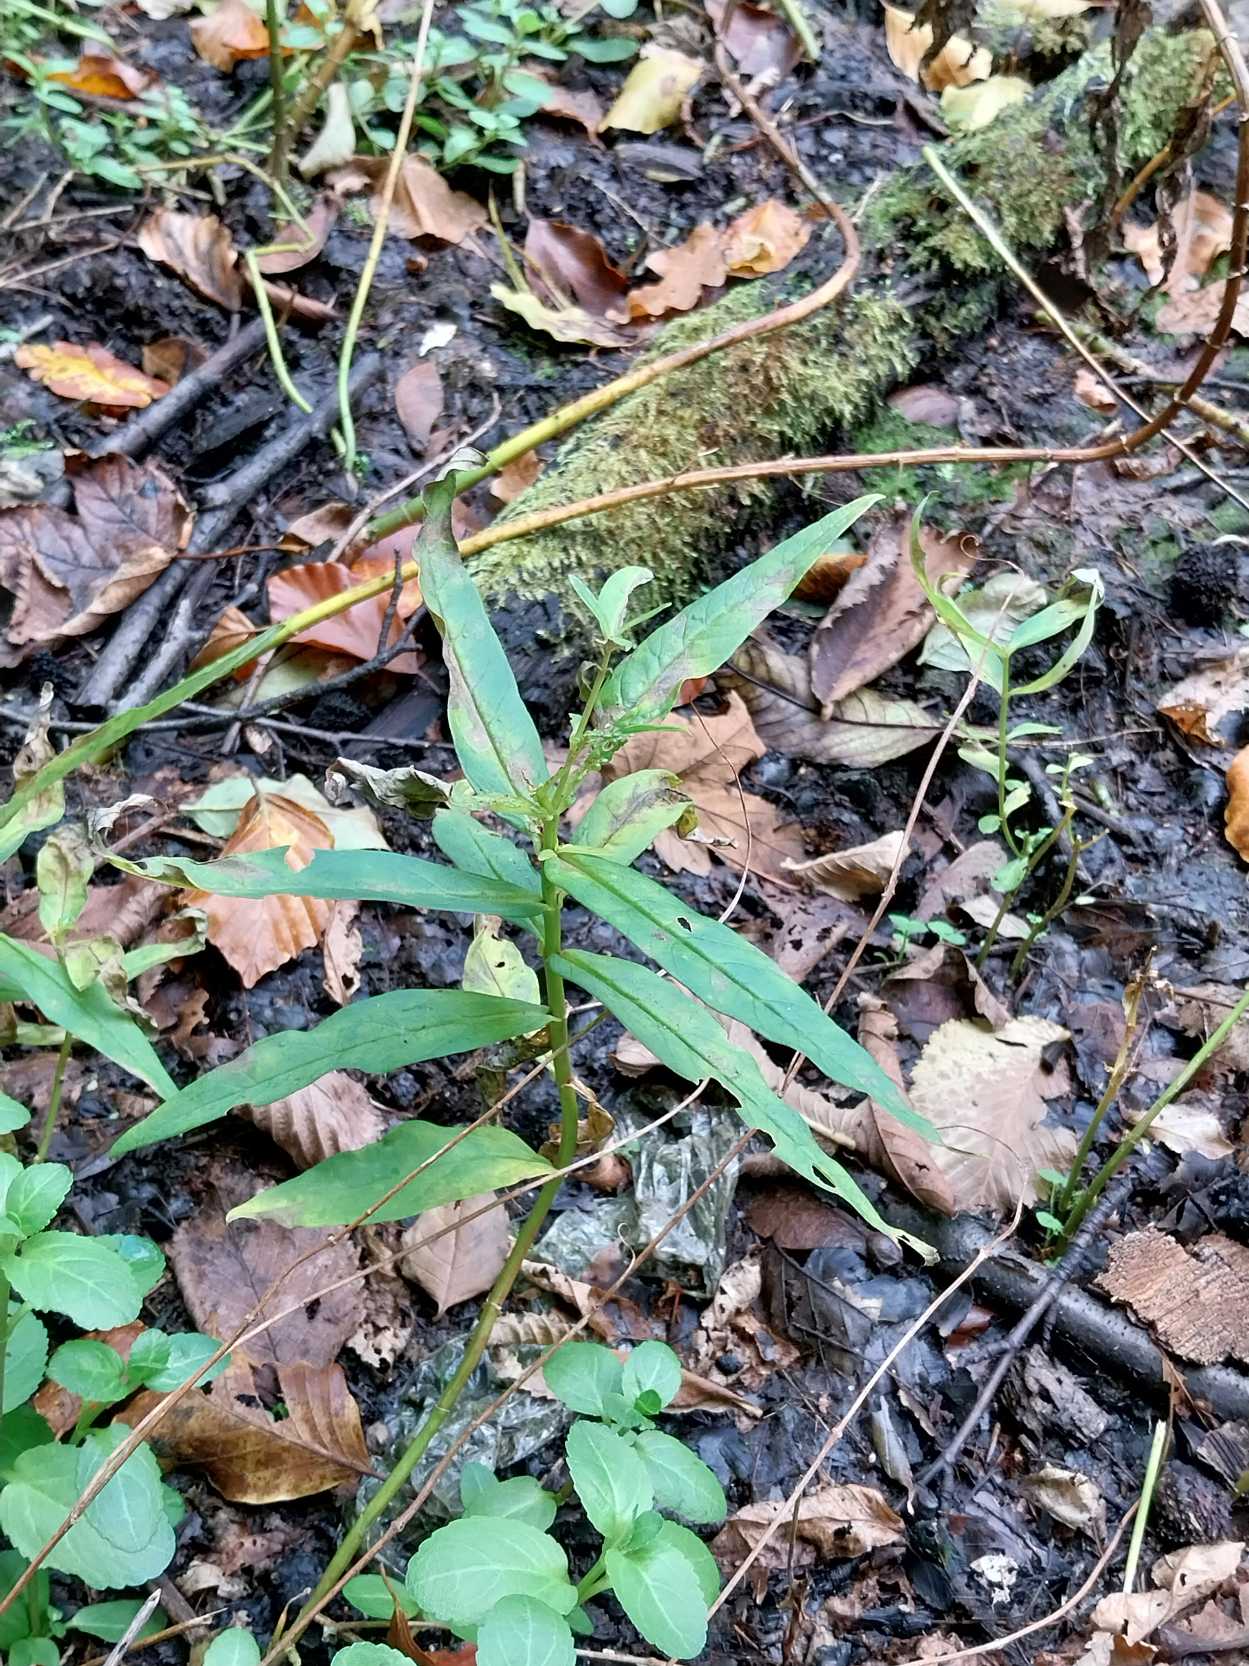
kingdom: Plantae
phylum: Tracheophyta
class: Magnoliopsida
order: Ericales
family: Primulaceae
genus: Lysimachia
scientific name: Lysimachia thyrsiflora
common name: Dusk-fredløs
